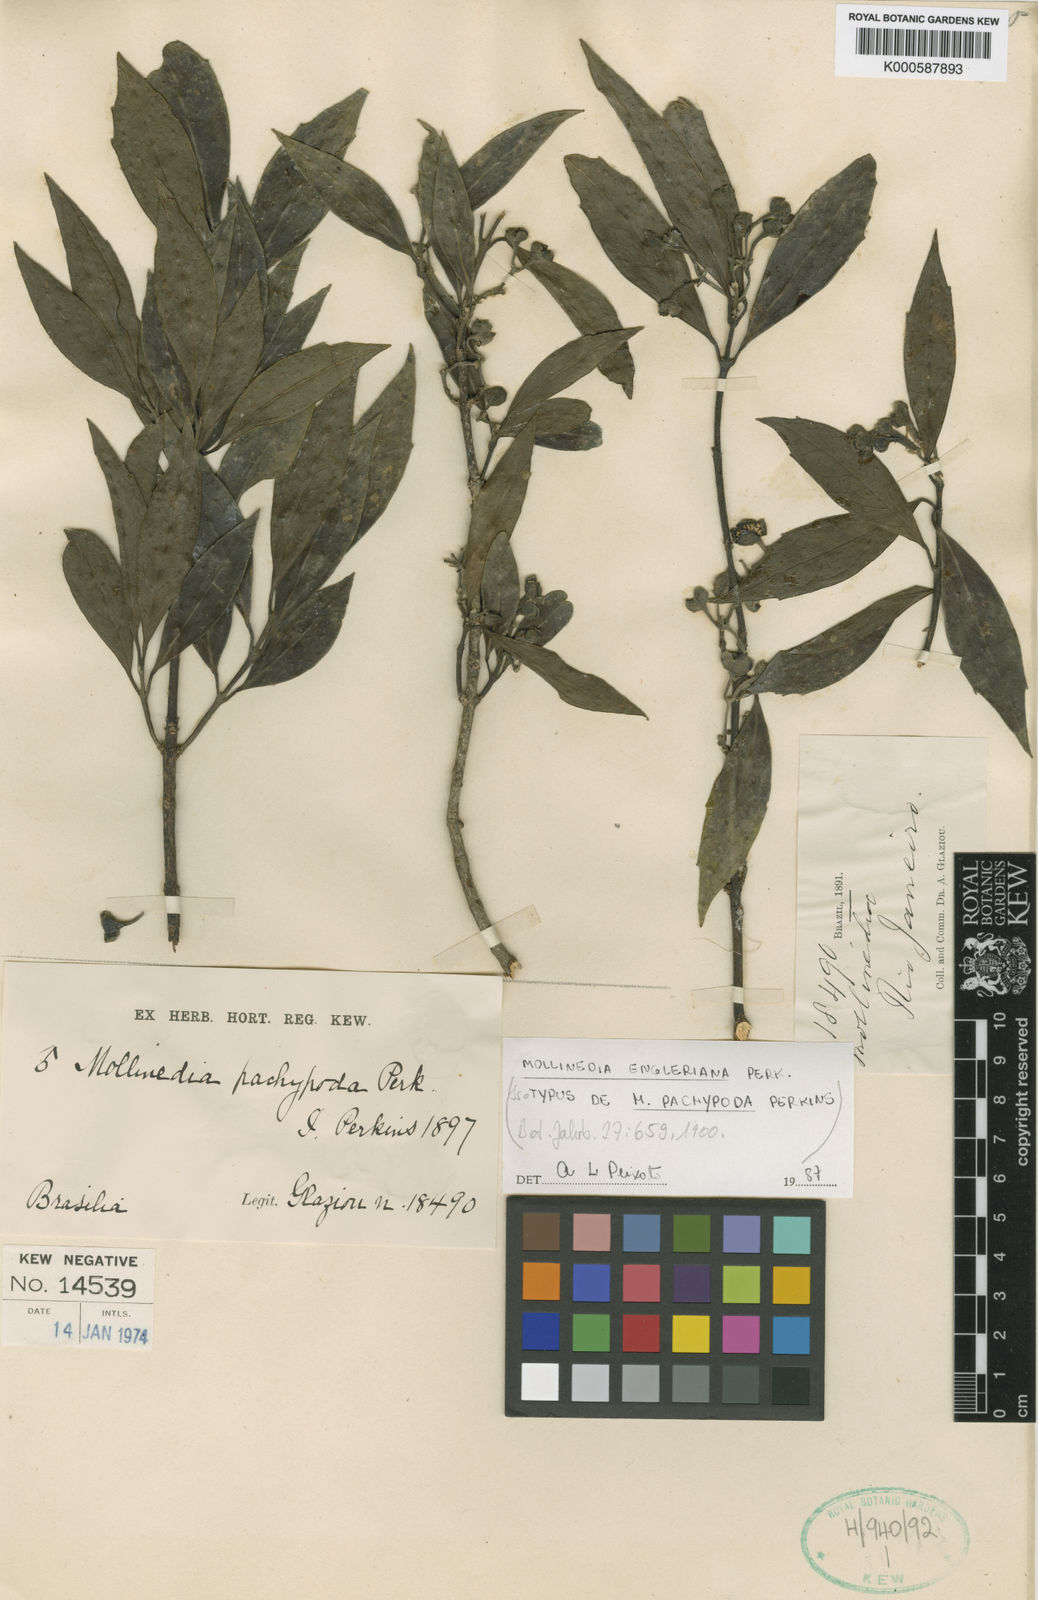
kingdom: Plantae
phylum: Tracheophyta
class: Magnoliopsida
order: Laurales
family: Monimiaceae
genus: Mollinedia
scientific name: Mollinedia engleriana
